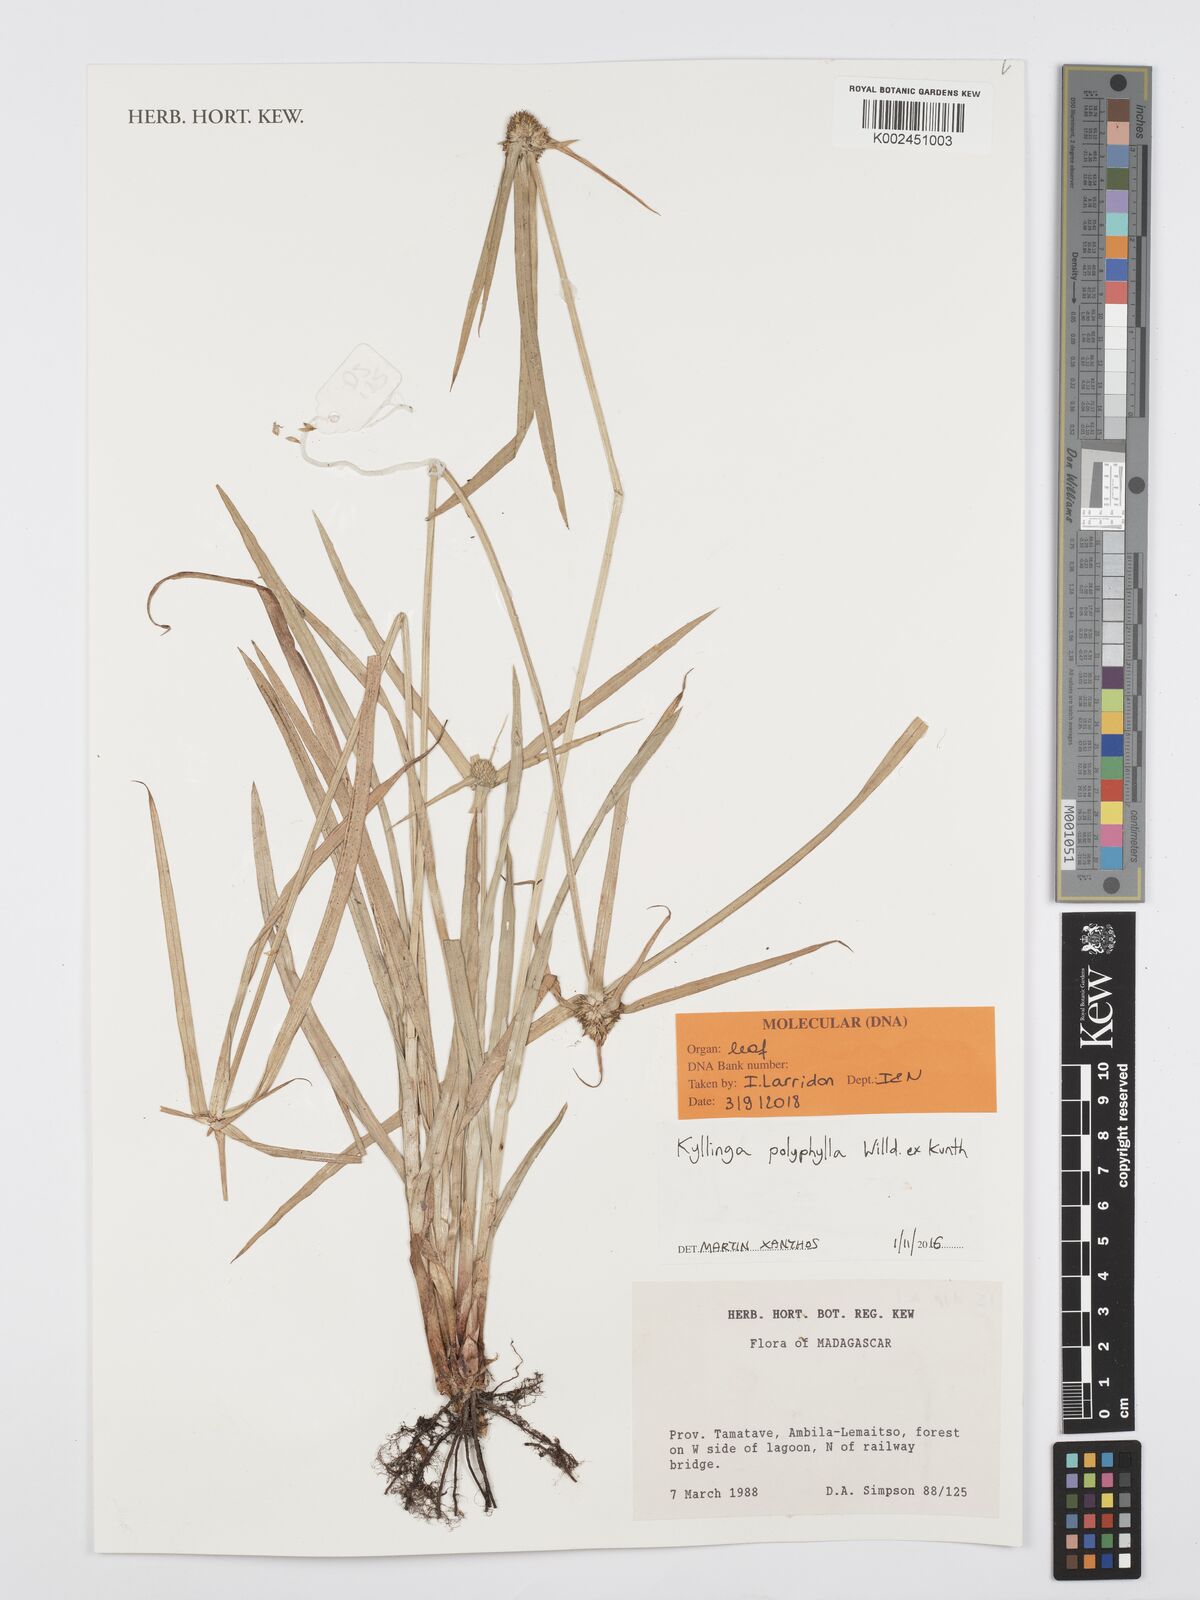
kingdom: Plantae
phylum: Tracheophyta
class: Liliopsida
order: Poales
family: Cyperaceae
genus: Cyperus
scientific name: Cyperus
